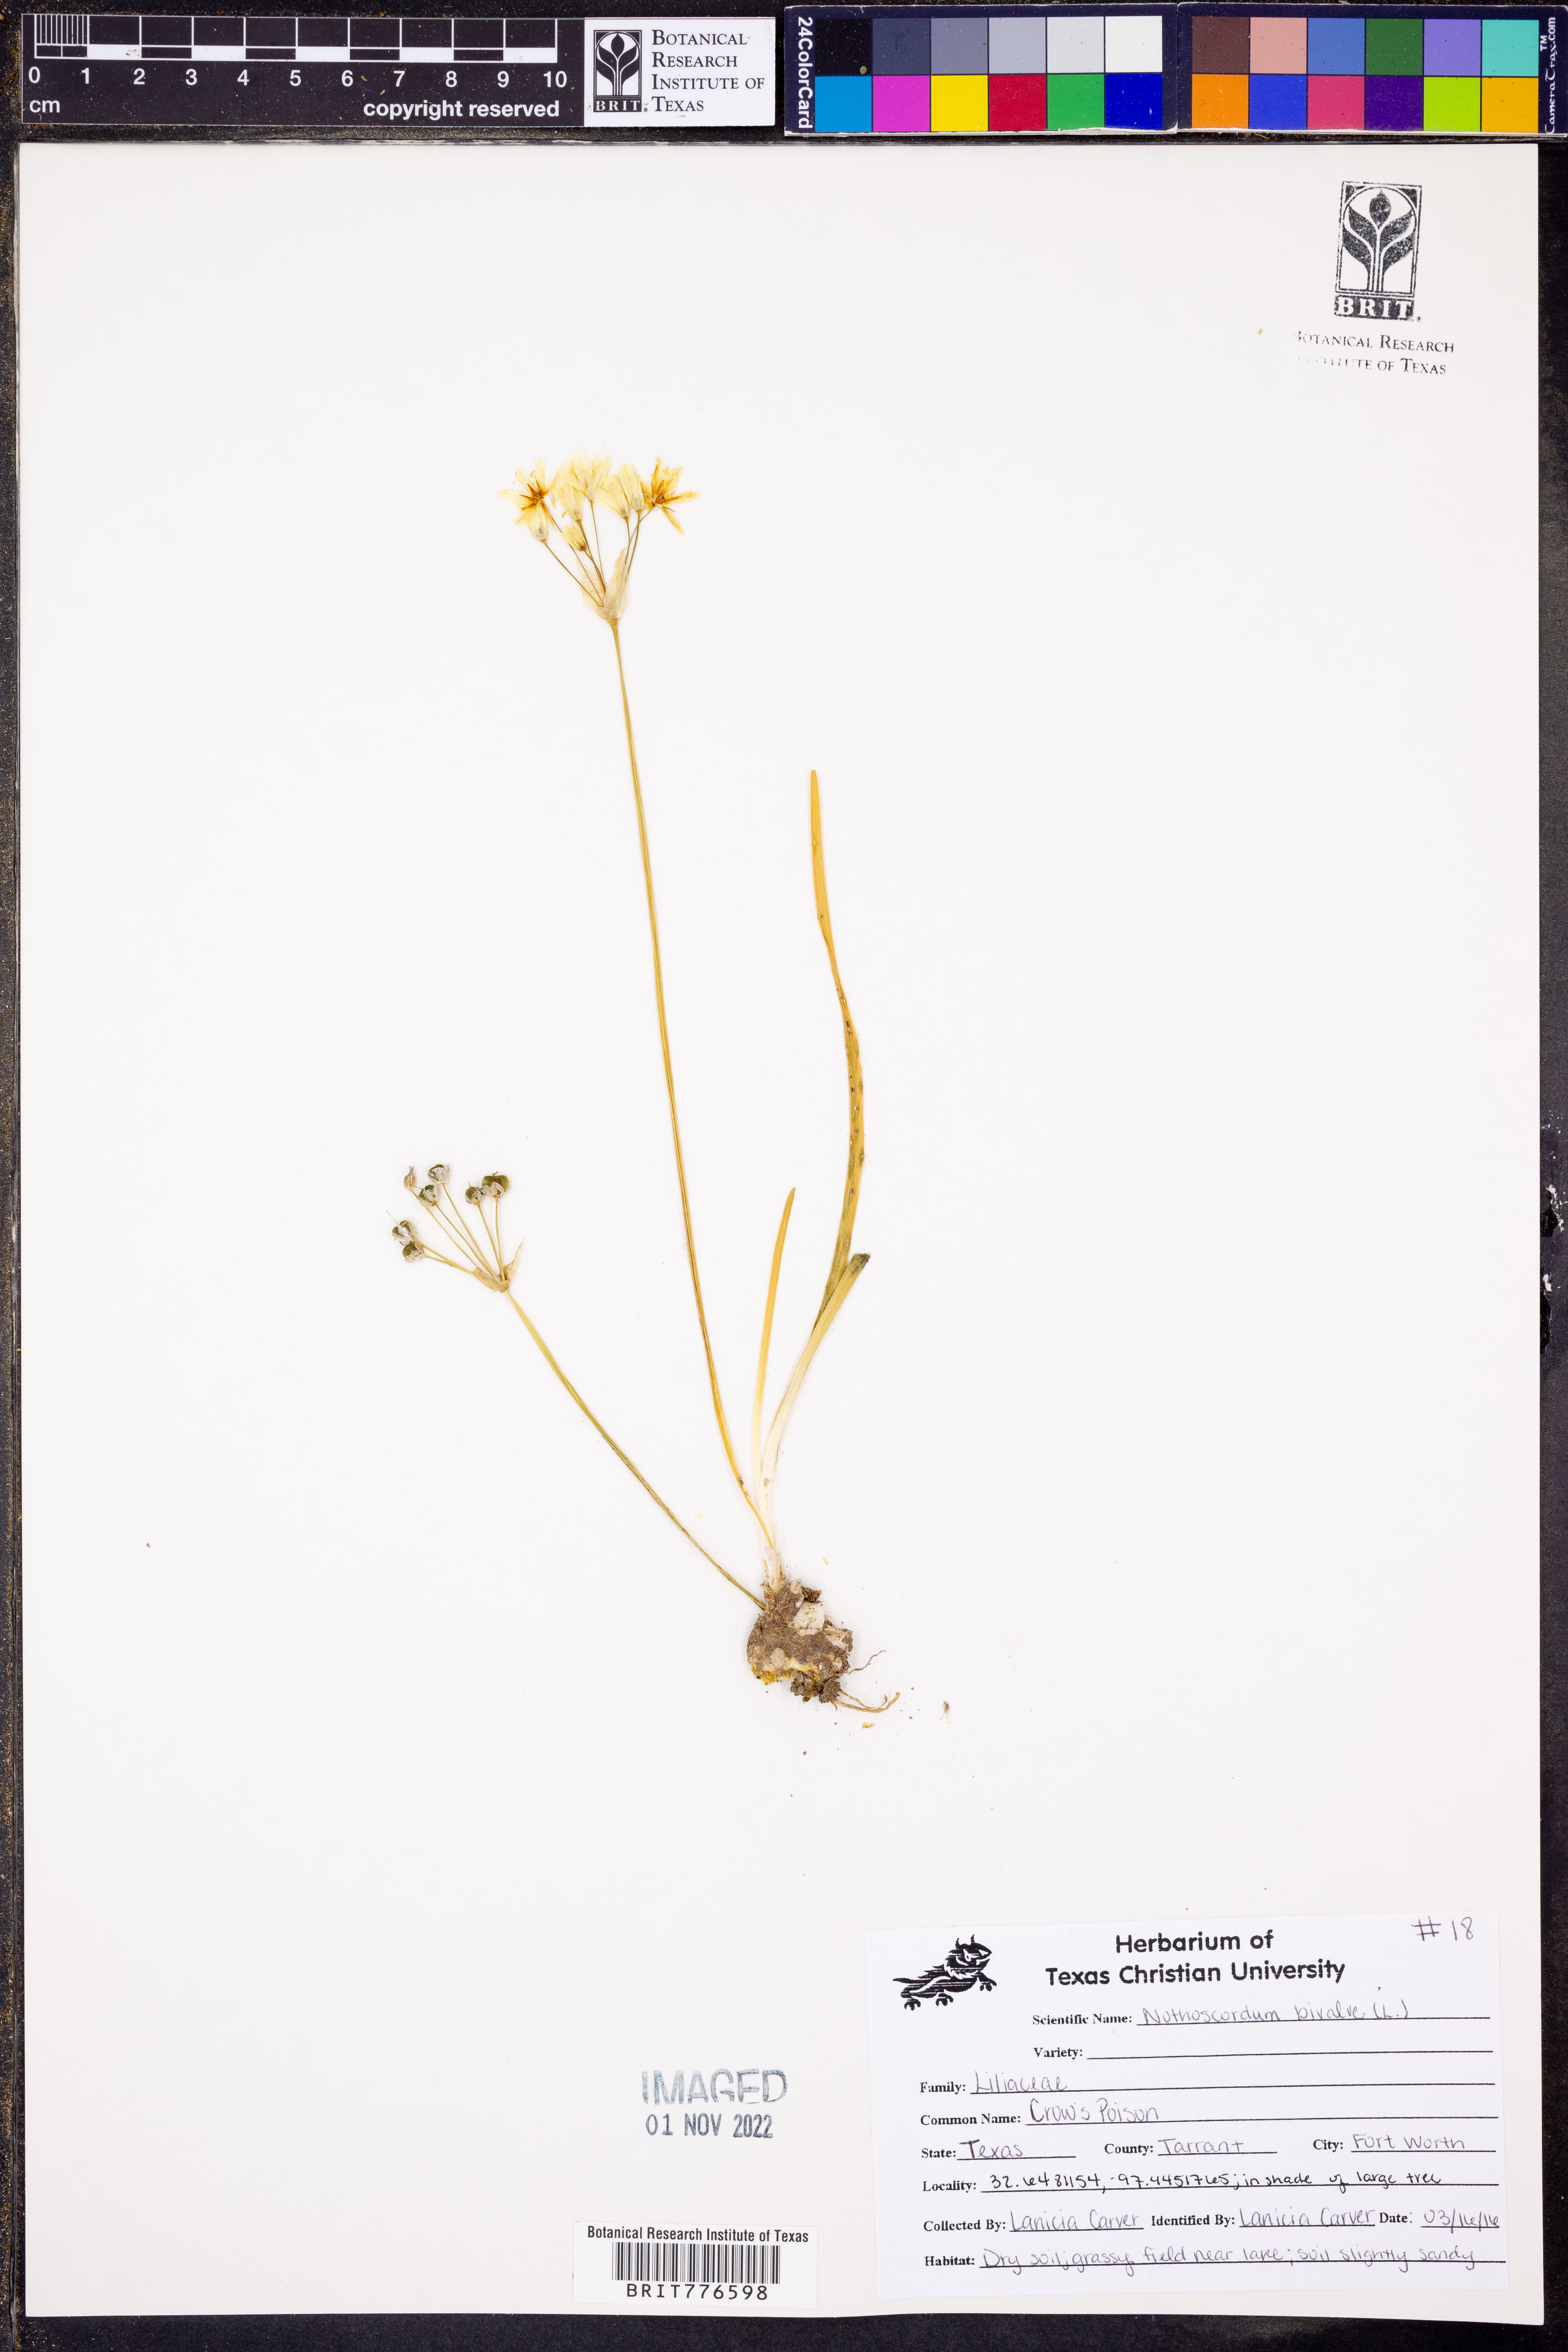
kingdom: Plantae
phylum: Tracheophyta
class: Liliopsida
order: Asparagales
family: Amaryllidaceae
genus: Nothoscordum
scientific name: Nothoscordum bivalve
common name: Crow-poison
